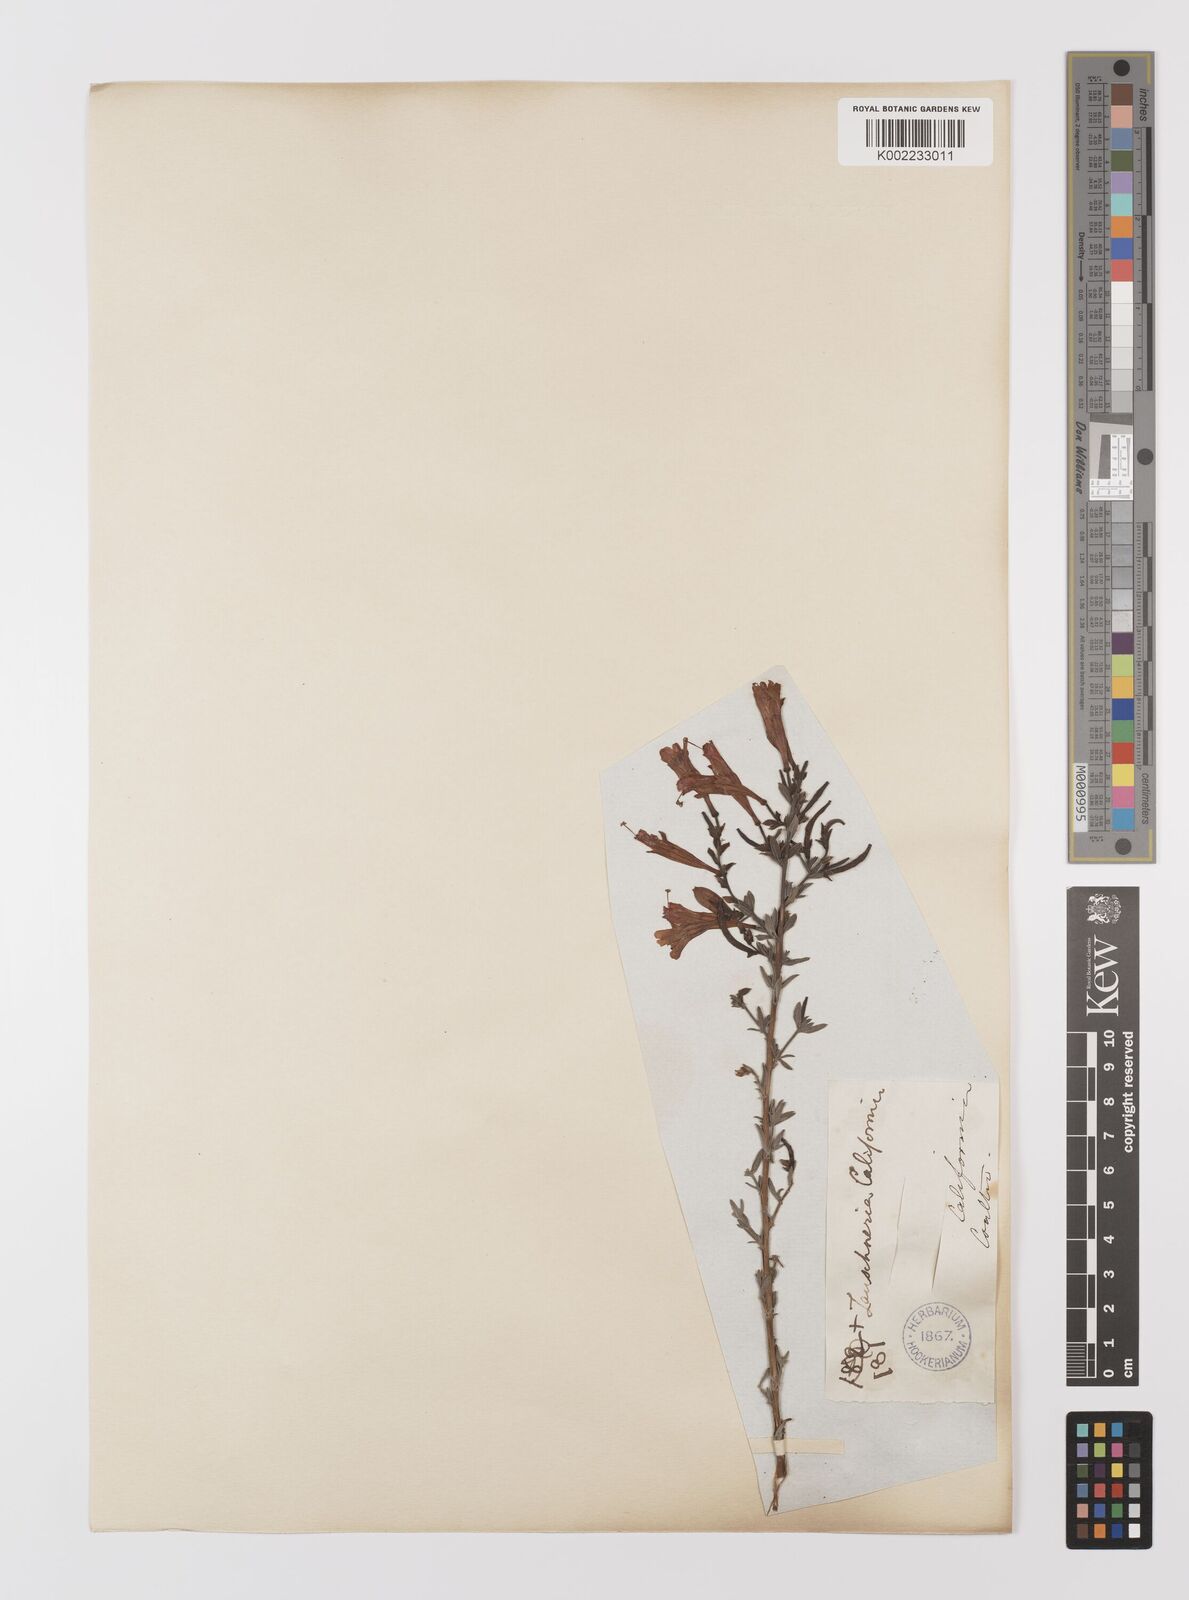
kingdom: Plantae
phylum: Tracheophyta
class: Magnoliopsida
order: Myrtales
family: Onagraceae
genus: Epilobium
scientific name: Epilobium canum
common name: California-fuchsia
